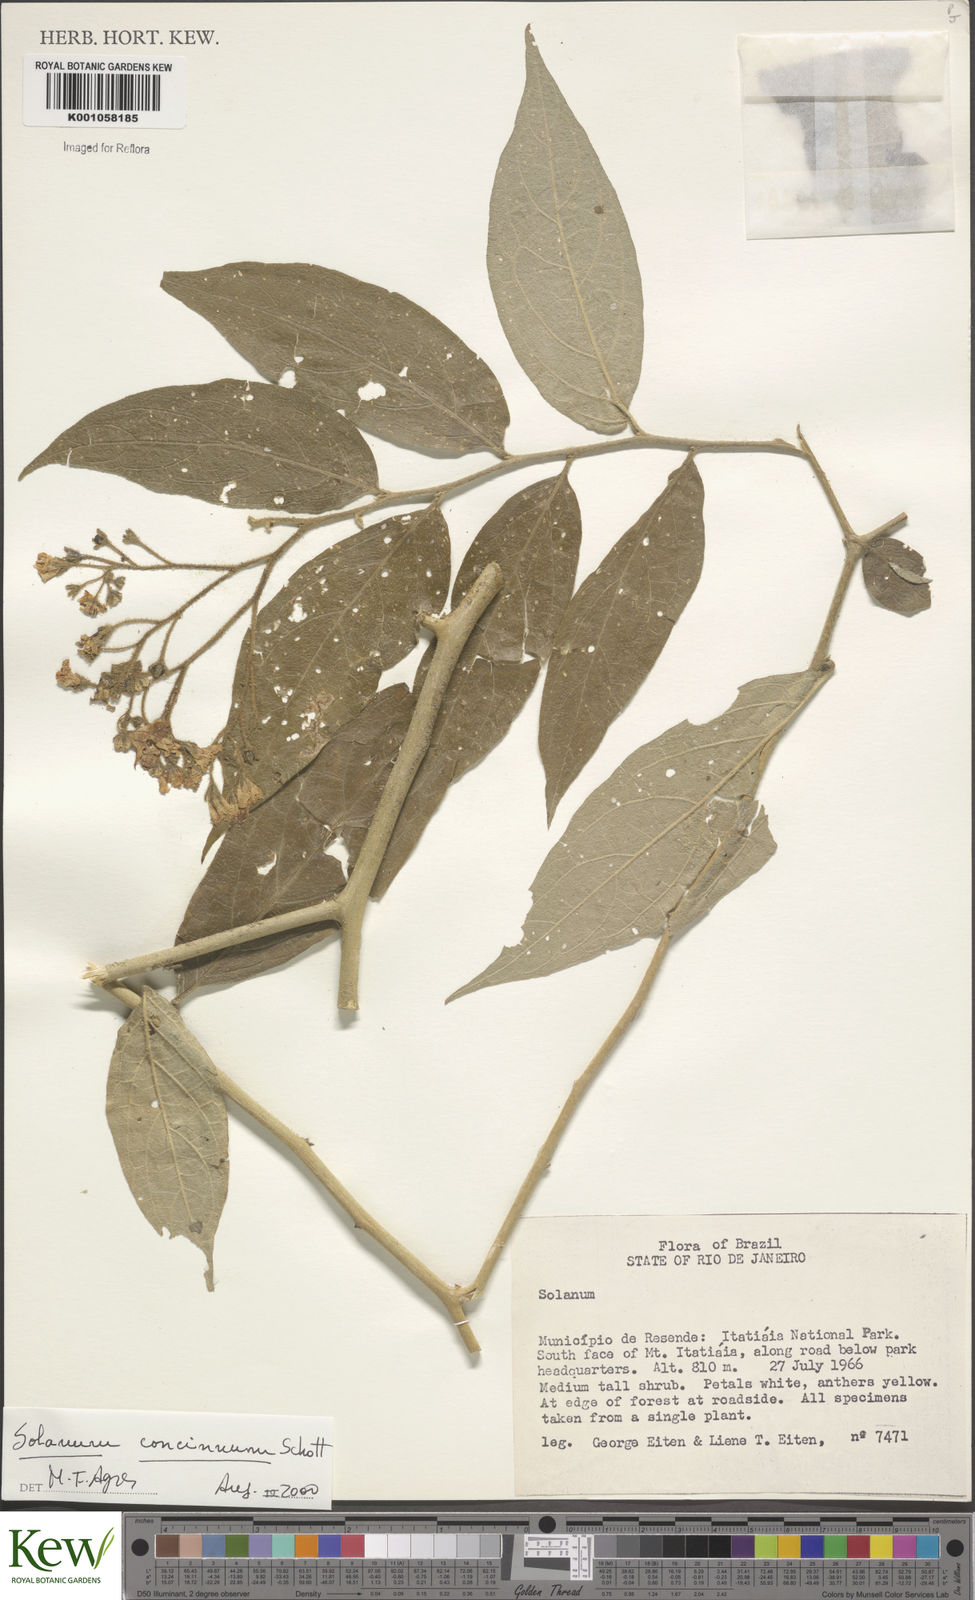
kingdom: Plantae
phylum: Tracheophyta
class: Magnoliopsida
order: Solanales
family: Solanaceae
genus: Solanum
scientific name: Solanum concinnum
